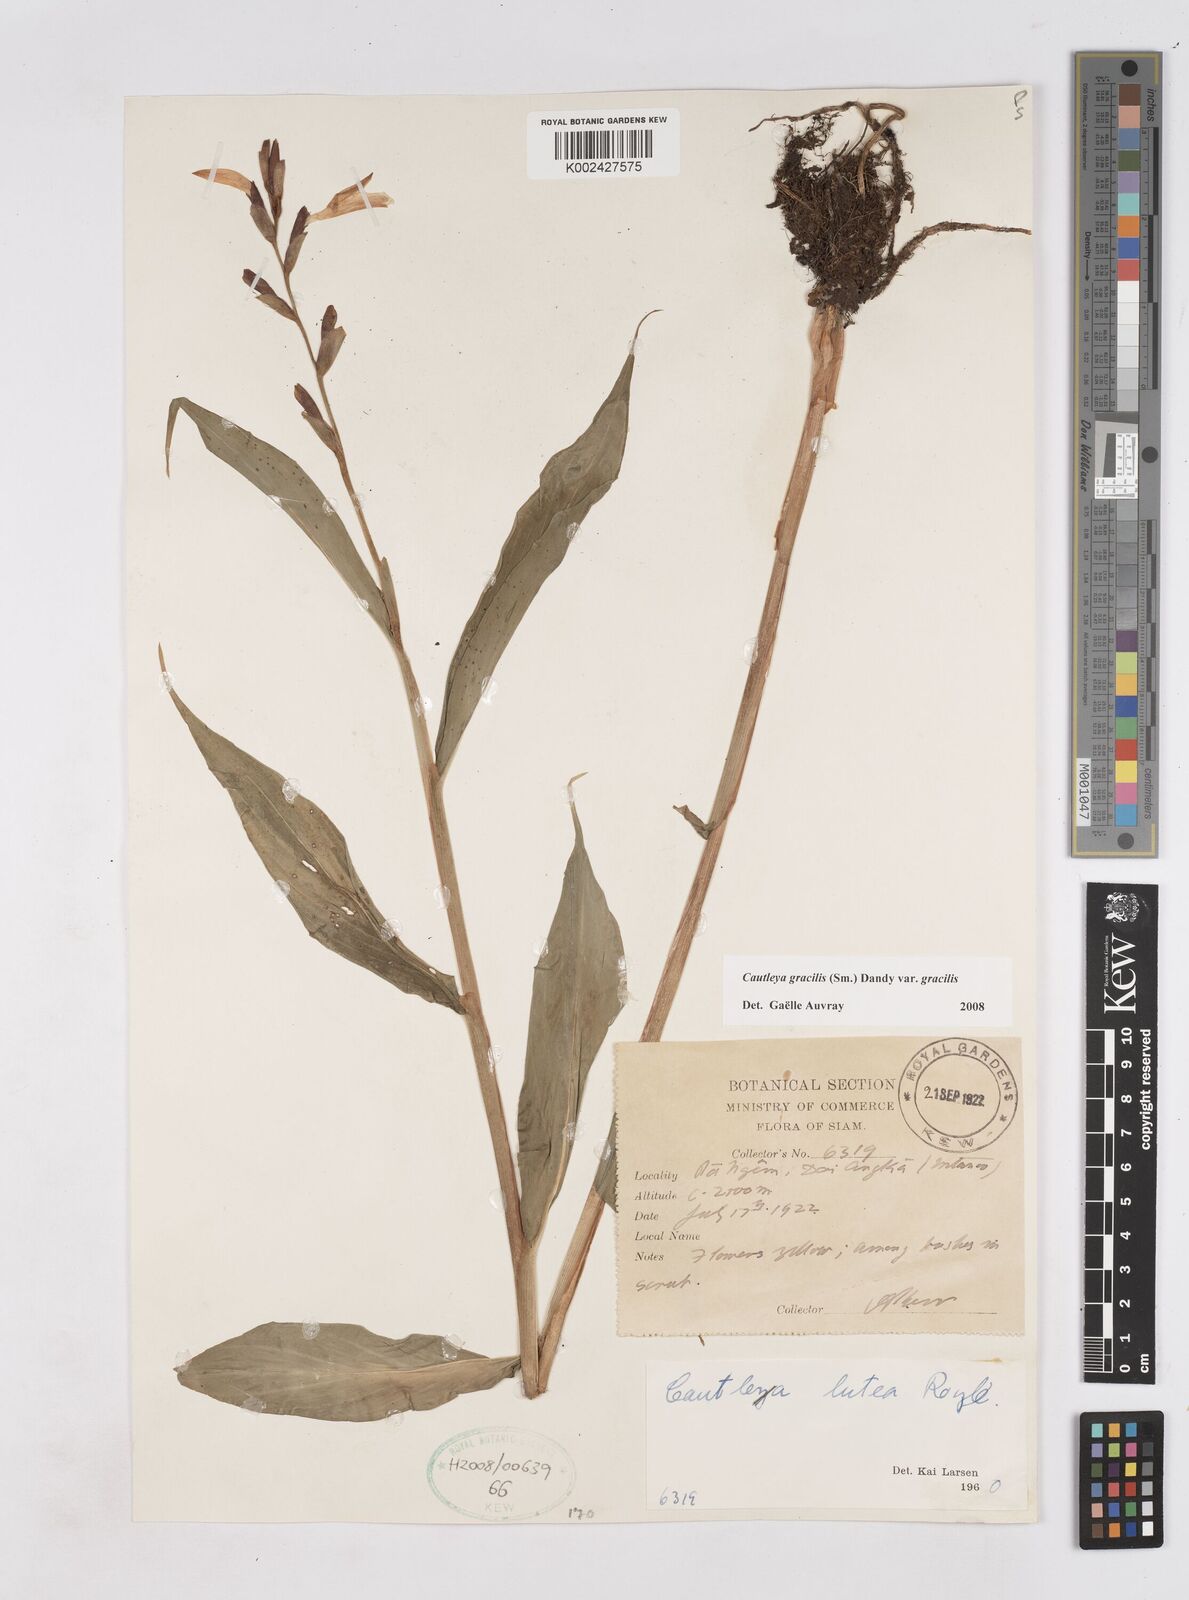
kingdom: Plantae
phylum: Tracheophyta
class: Liliopsida
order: Zingiberales
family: Zingiberaceae
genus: Cautleya
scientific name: Cautleya gracilis
